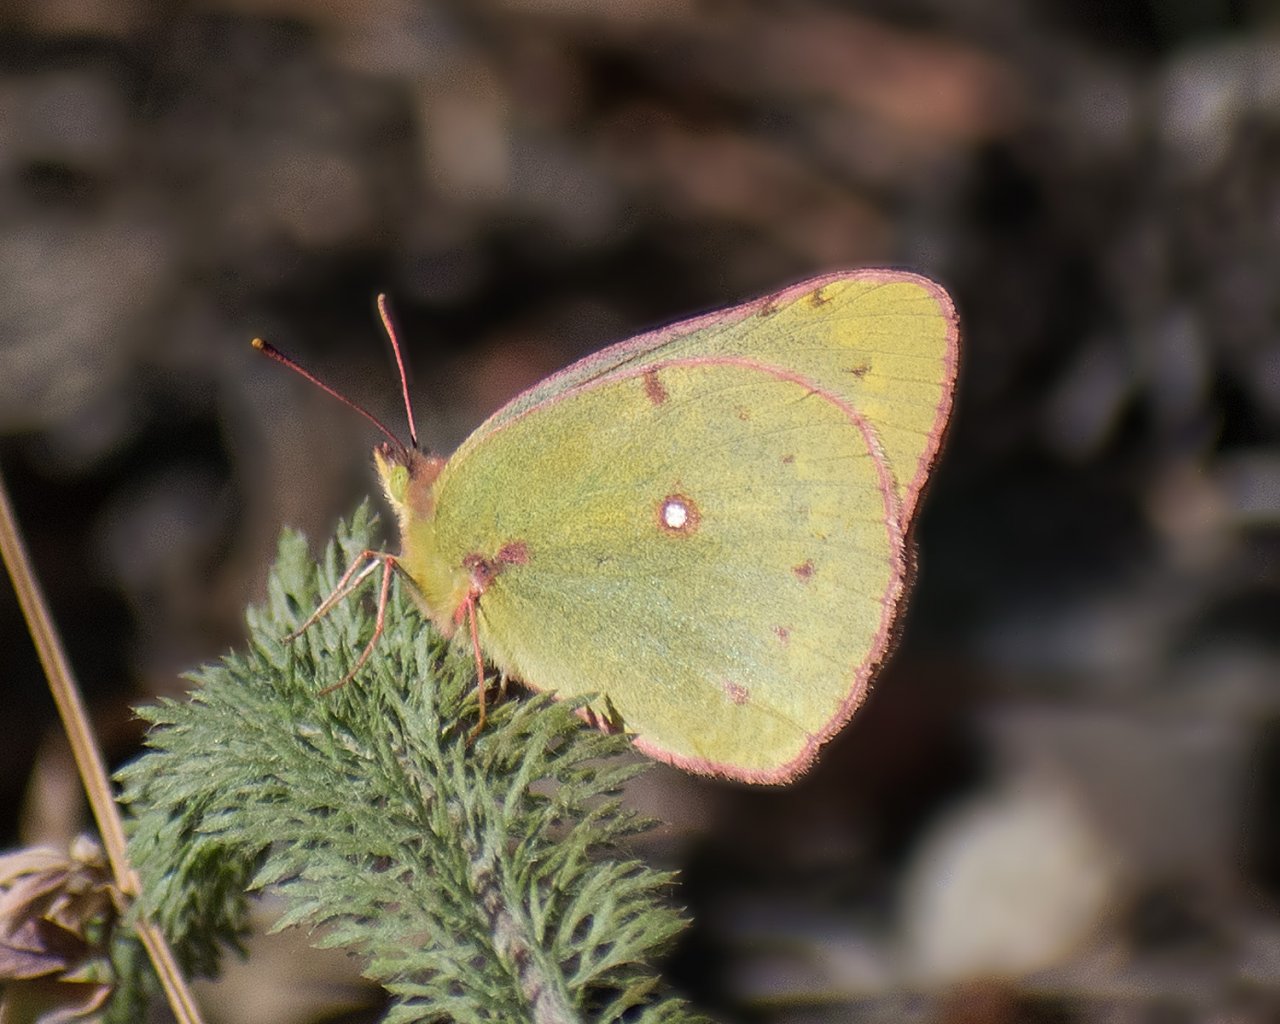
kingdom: Animalia
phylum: Arthropoda
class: Insecta
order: Lepidoptera
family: Pieridae
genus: Colias
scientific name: Colias philodice
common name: Clouded Sulphur
